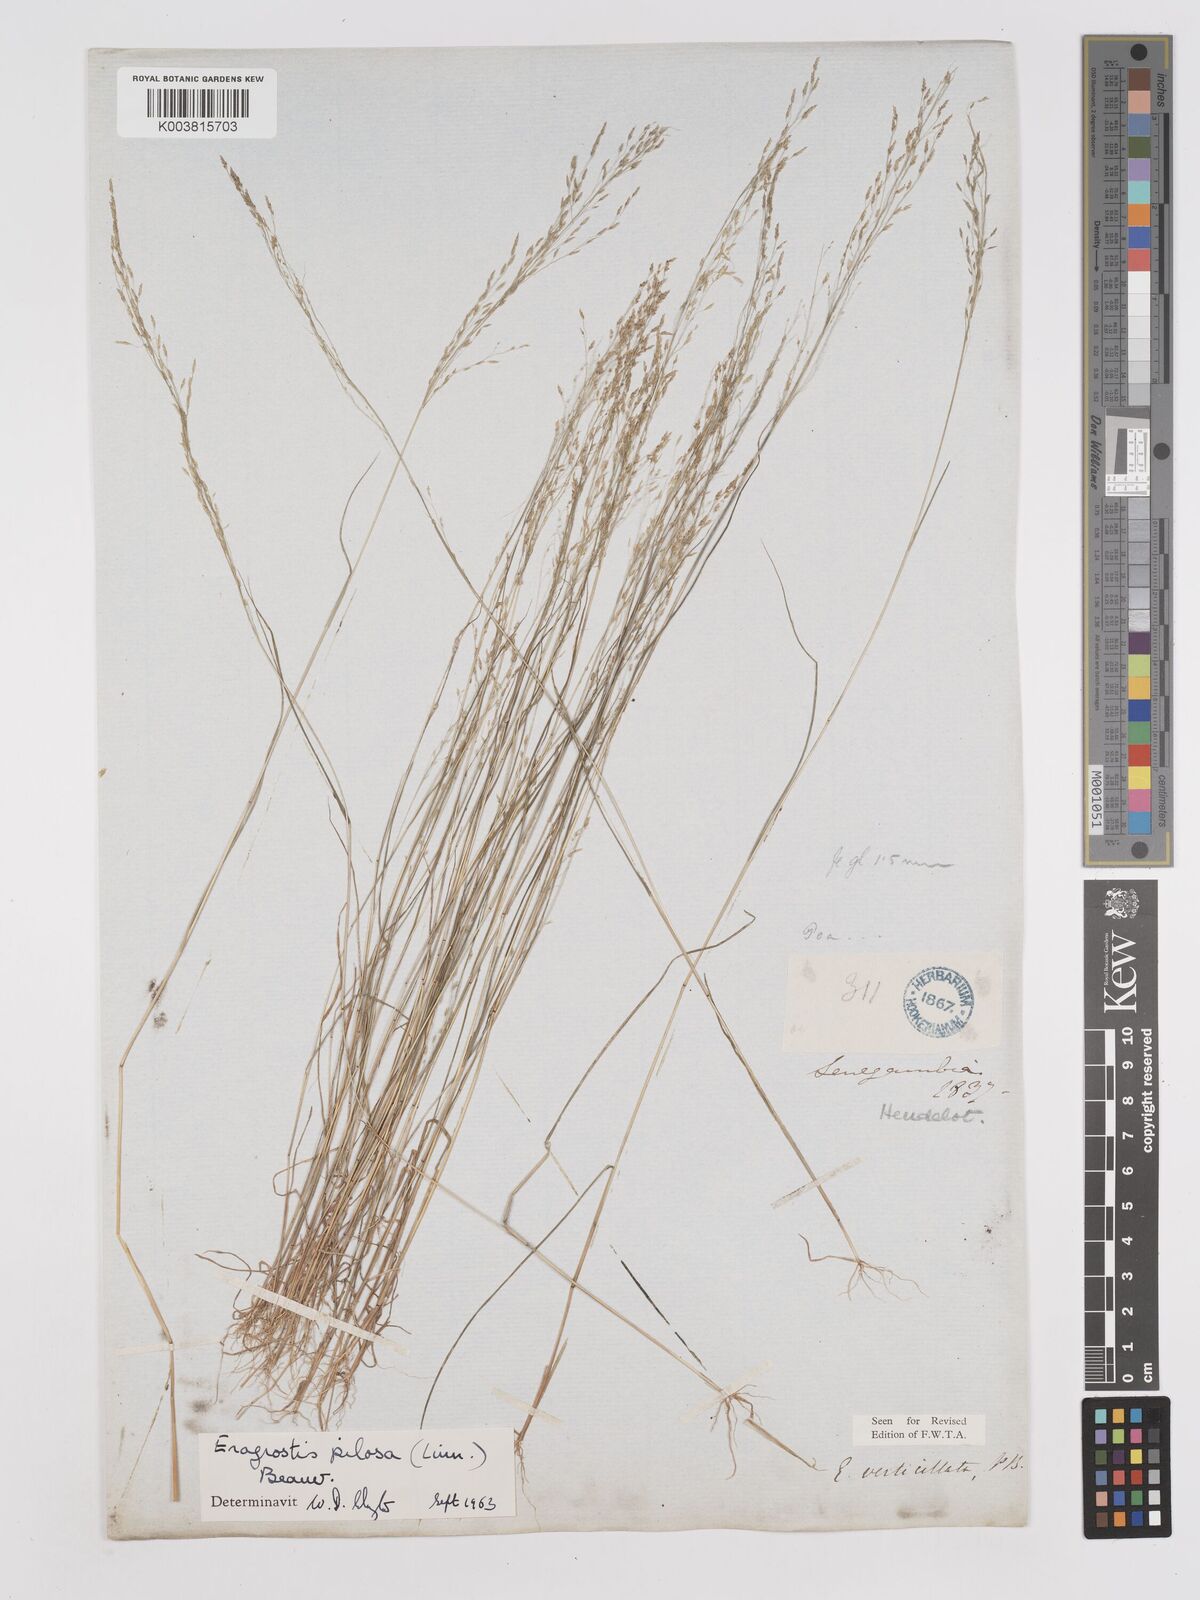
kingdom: Plantae
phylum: Tracheophyta
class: Liliopsida
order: Poales
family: Poaceae
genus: Eragrostis
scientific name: Eragrostis pilosa
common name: Indian lovegrass
